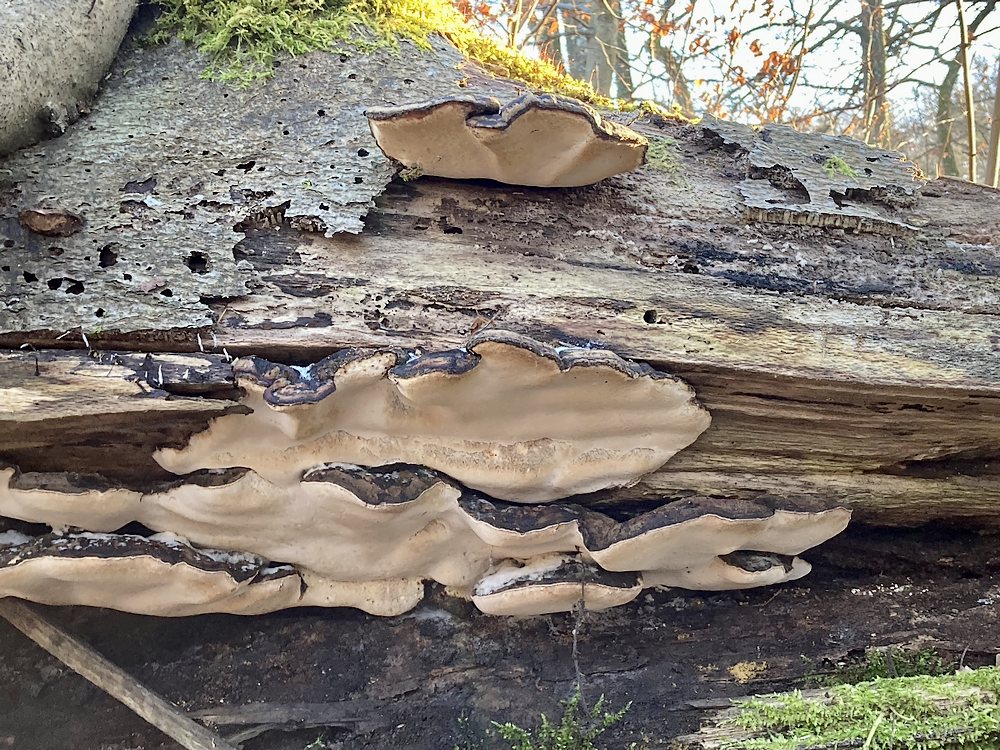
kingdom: Fungi
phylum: Basidiomycota
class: Agaricomycetes
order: Polyporales
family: Ischnodermataceae
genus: Ischnoderma
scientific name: Ischnoderma resinosum
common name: løv-tjæreporesvamp
